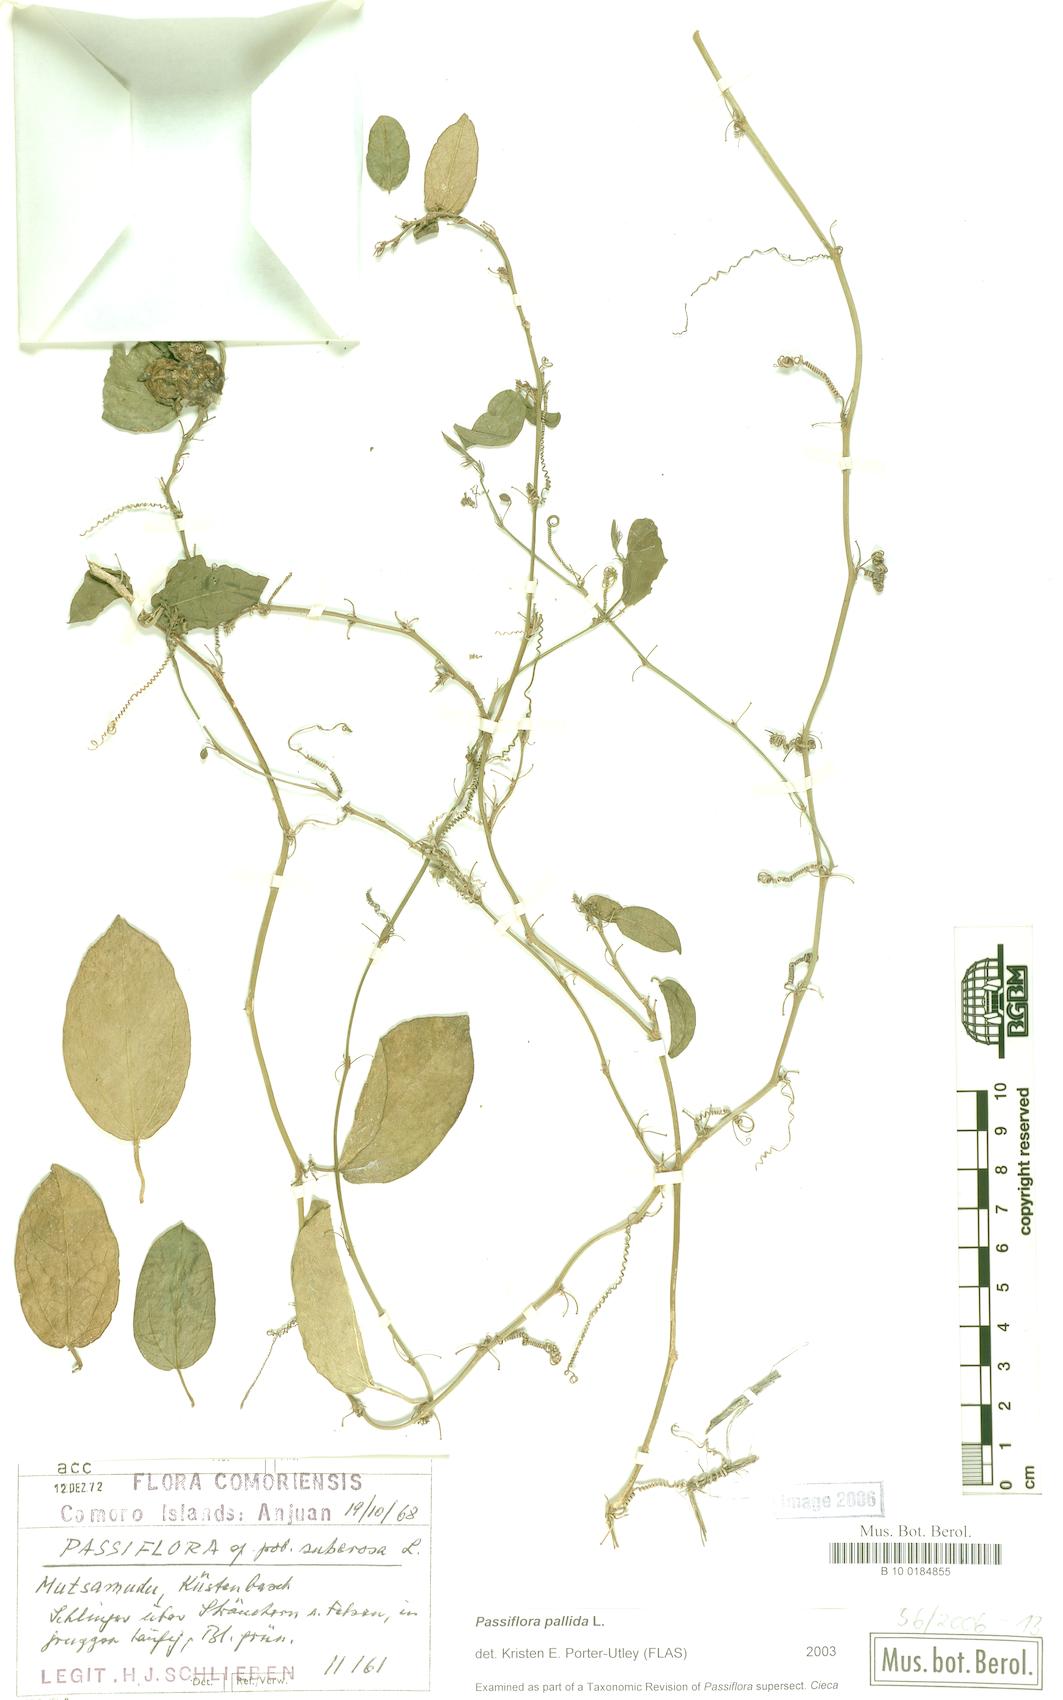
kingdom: Plantae
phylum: Tracheophyta
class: Magnoliopsida
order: Malpighiales
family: Passifloraceae
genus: Passiflora
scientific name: Passiflora pallida
